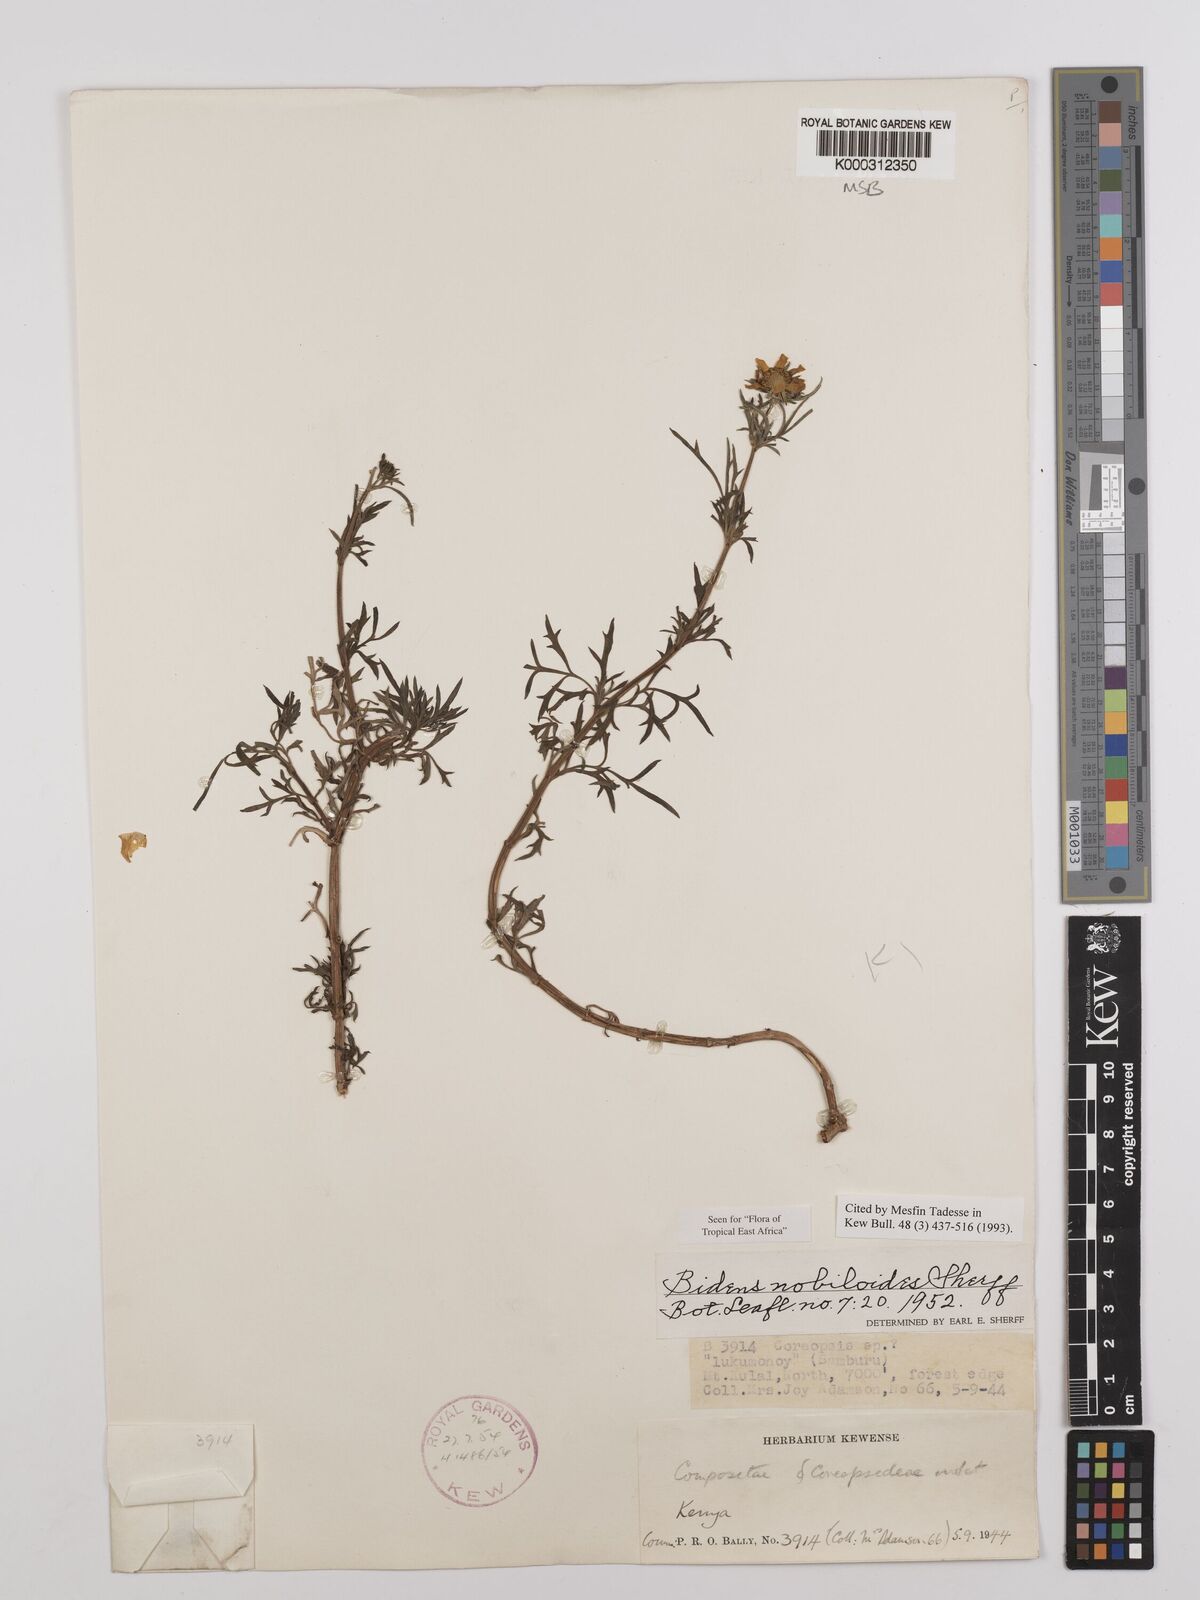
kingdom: Plantae
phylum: Tracheophyta
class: Magnoliopsida
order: Asterales
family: Asteraceae
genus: Bidens
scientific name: Bidens
